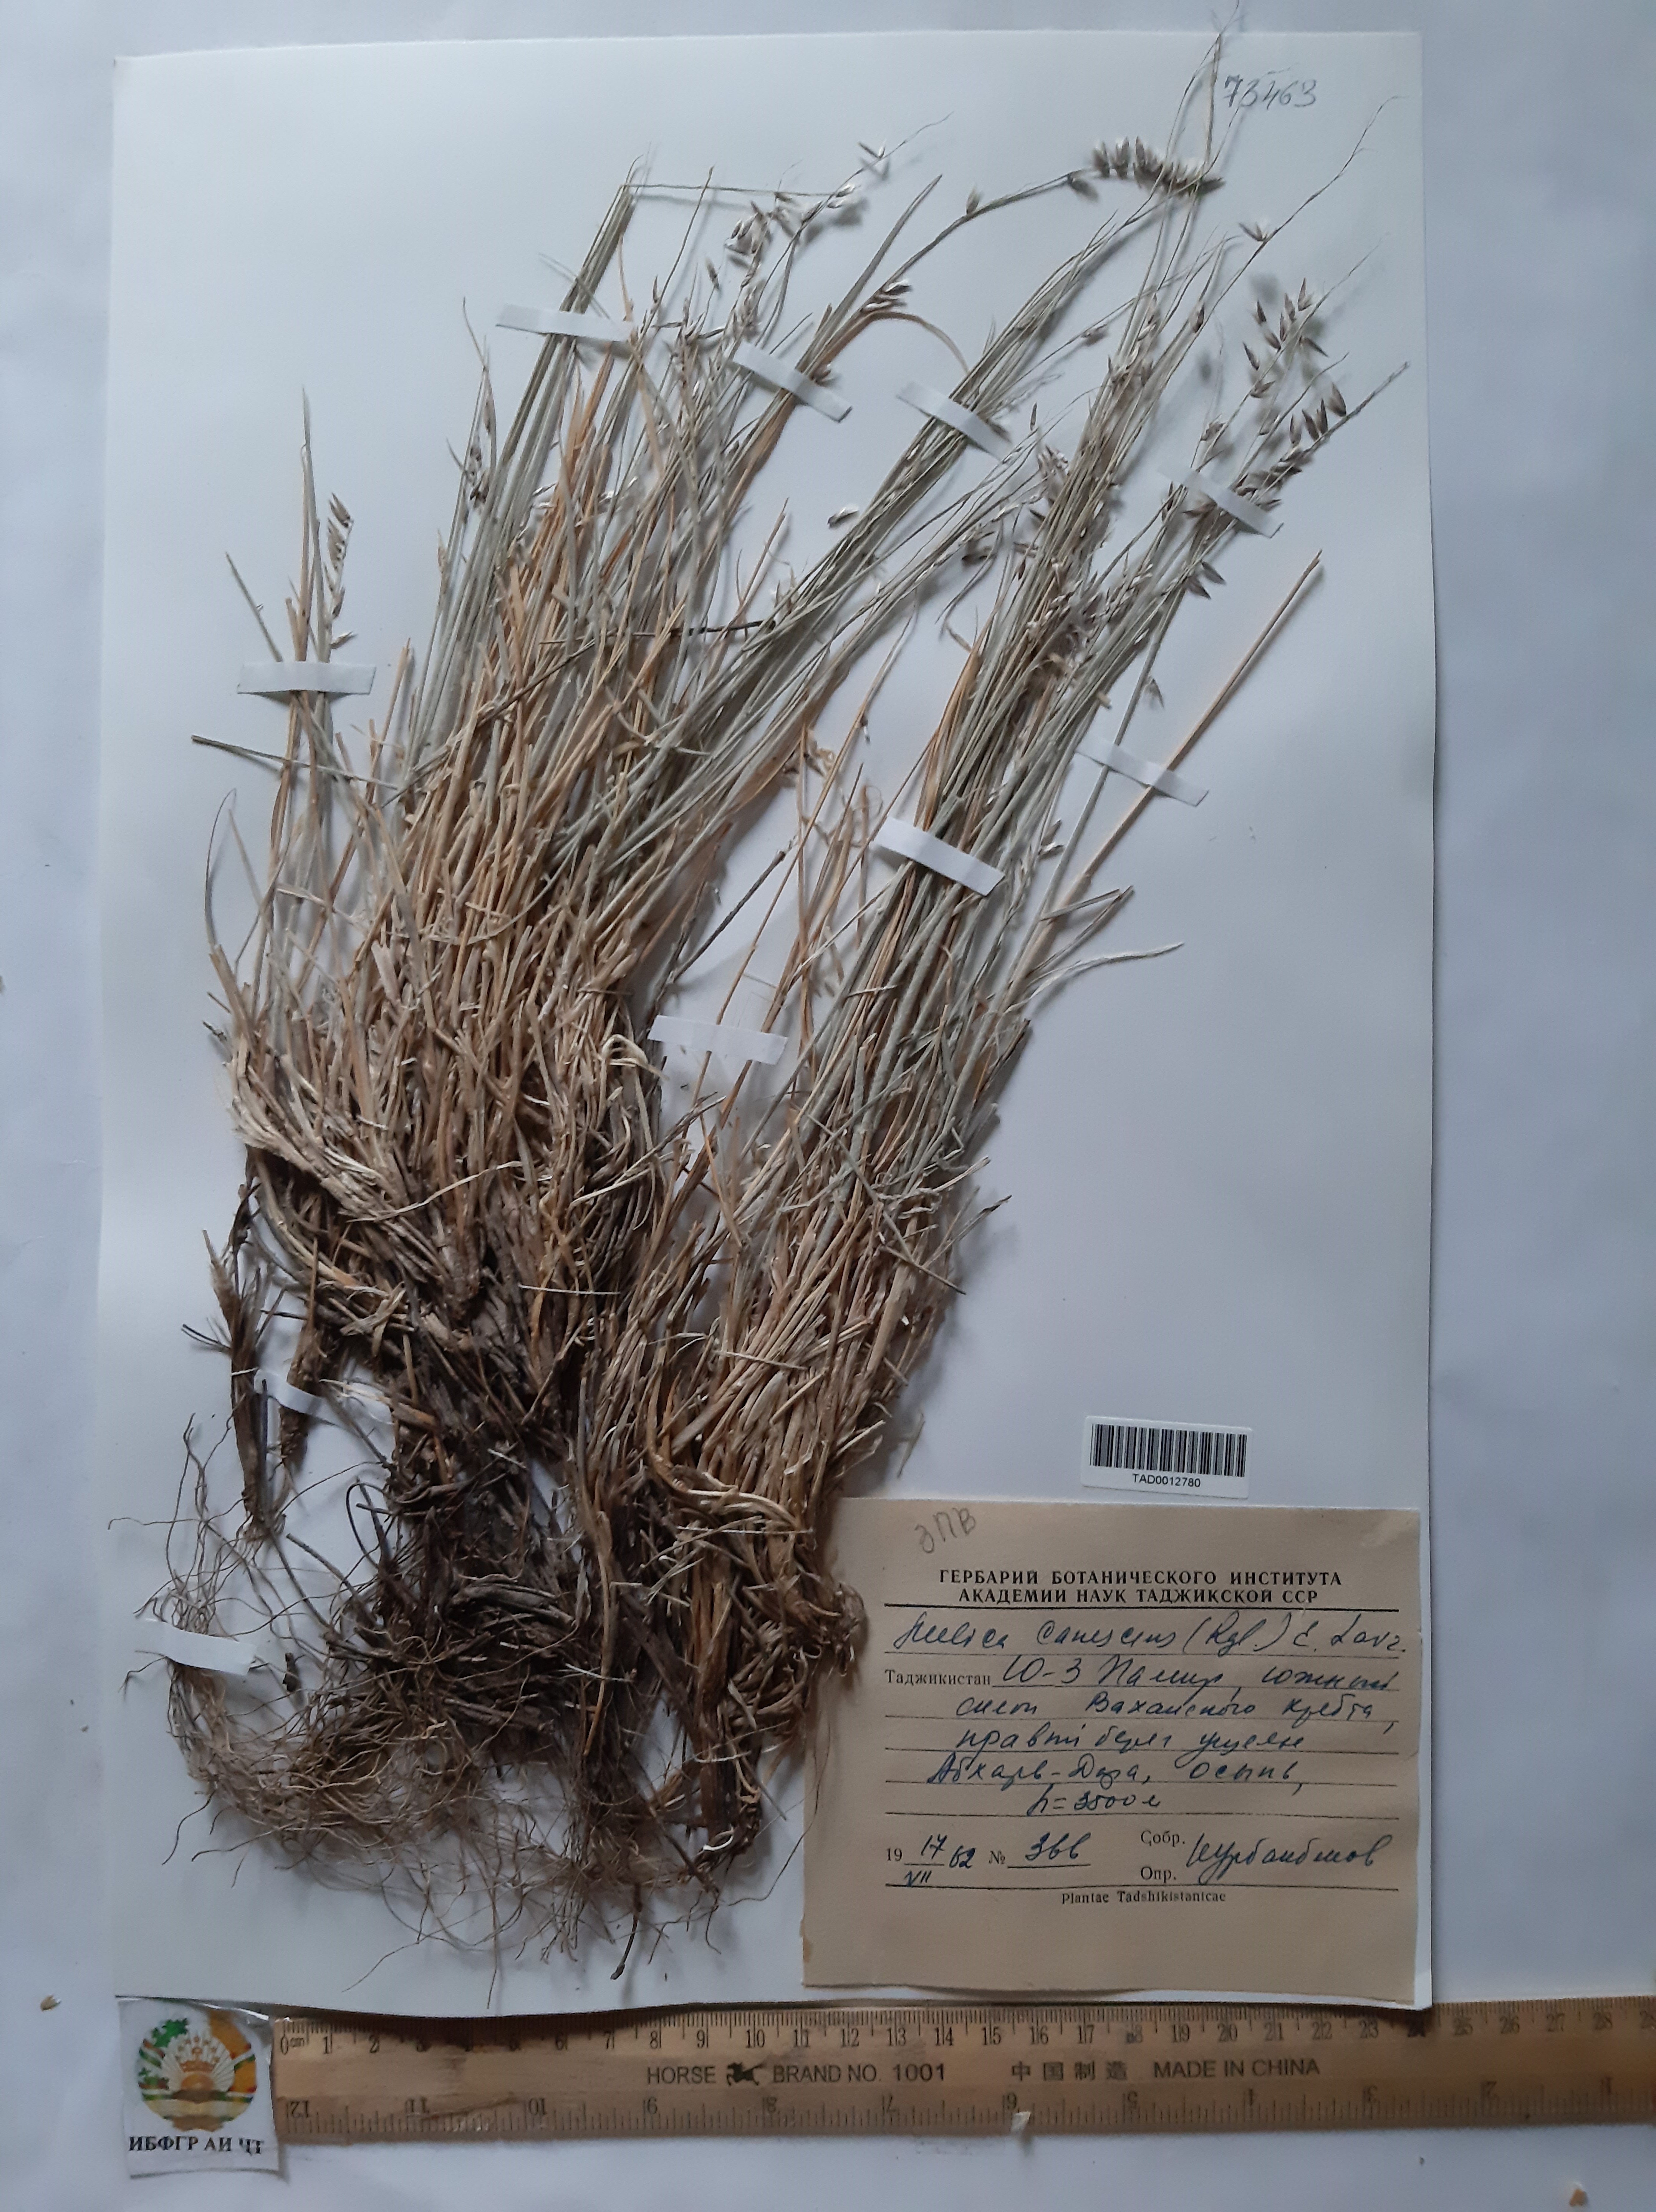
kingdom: Plantae
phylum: Tracheophyta
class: Liliopsida
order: Poales
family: Poaceae
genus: Melica
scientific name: Melica persica
